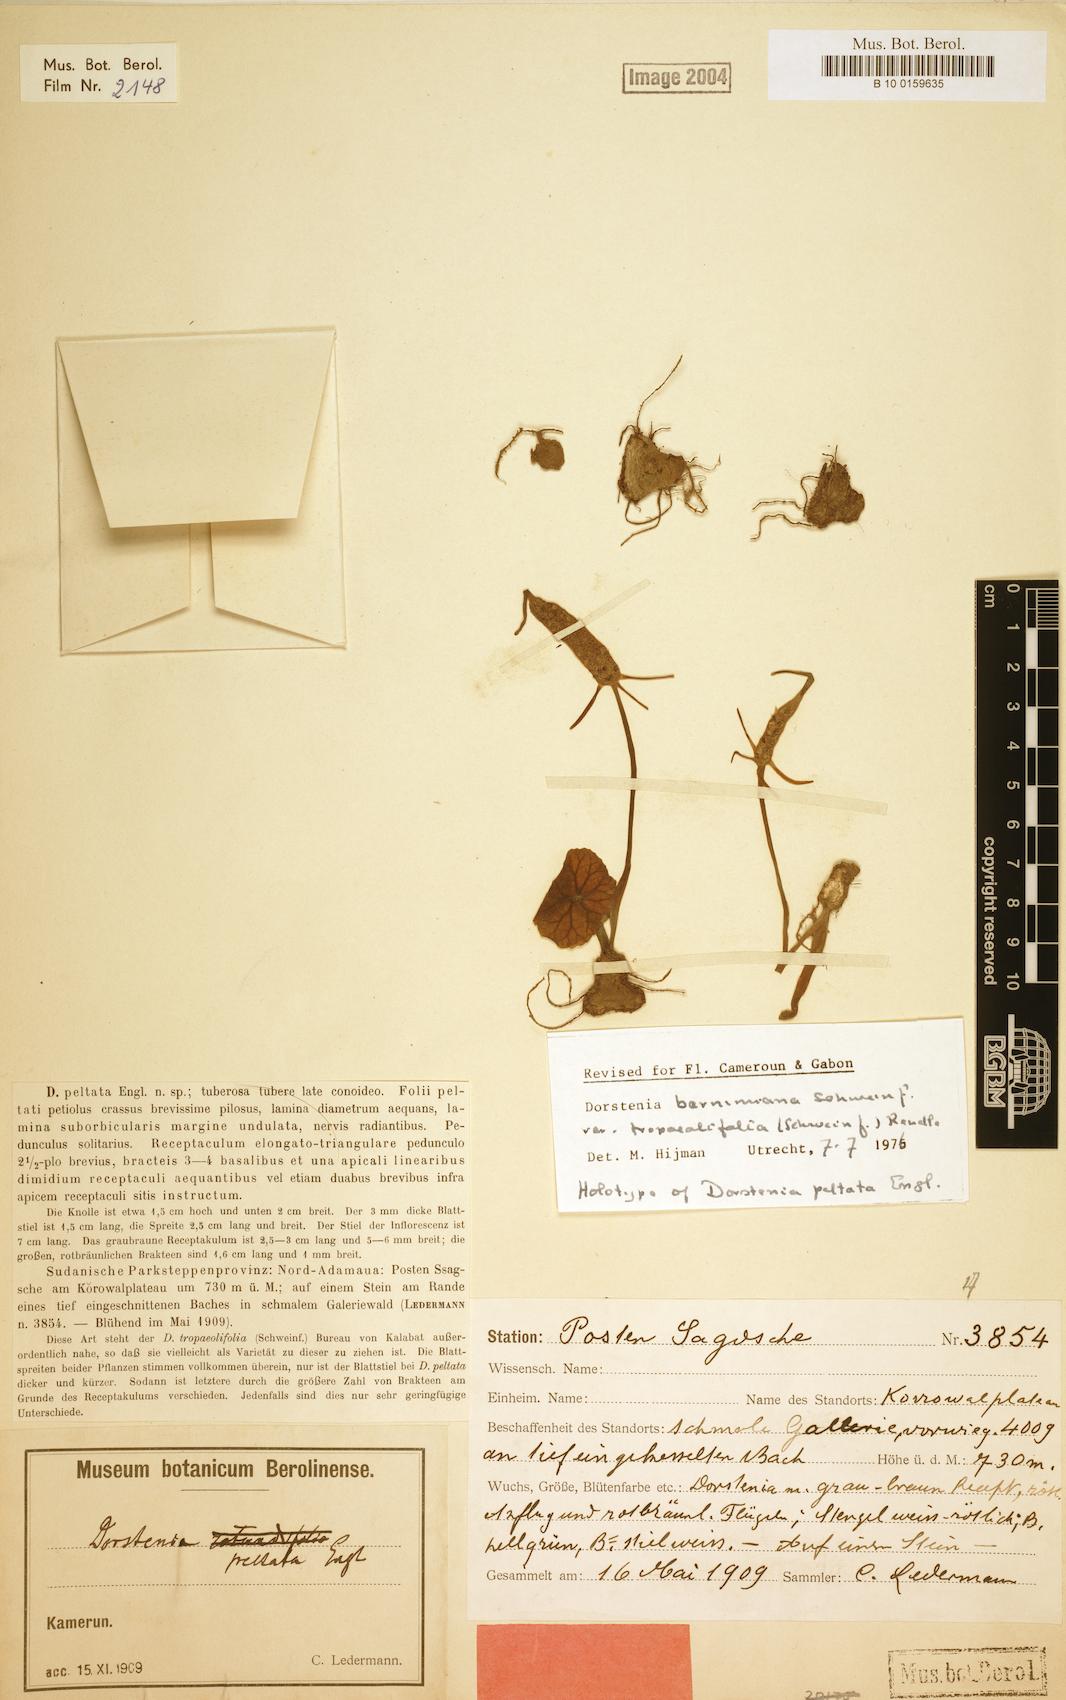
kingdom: Plantae
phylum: Tracheophyta
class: Magnoliopsida
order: Rosales
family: Moraceae
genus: Dorstenia
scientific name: Dorstenia barnimiana
